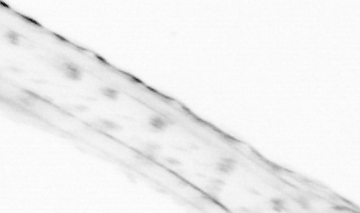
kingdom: Animalia
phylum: Chordata
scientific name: Chordata
